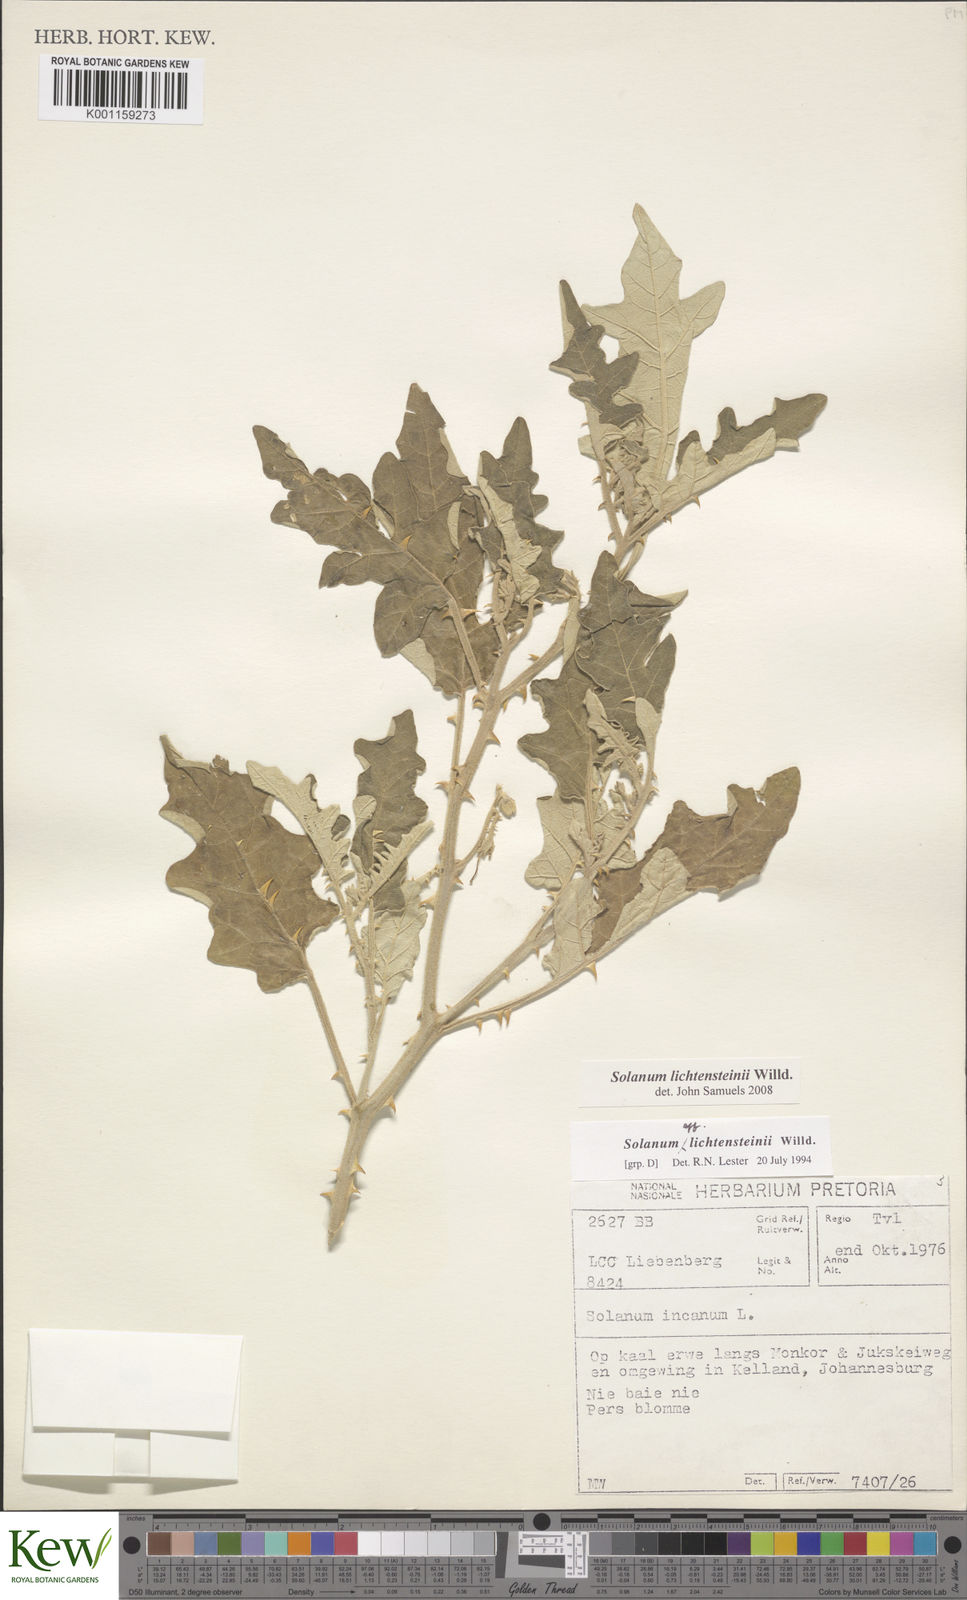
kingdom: Plantae
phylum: Tracheophyta
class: Magnoliopsida
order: Solanales
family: Solanaceae
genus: Solanum
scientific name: Solanum lichtensteinii
